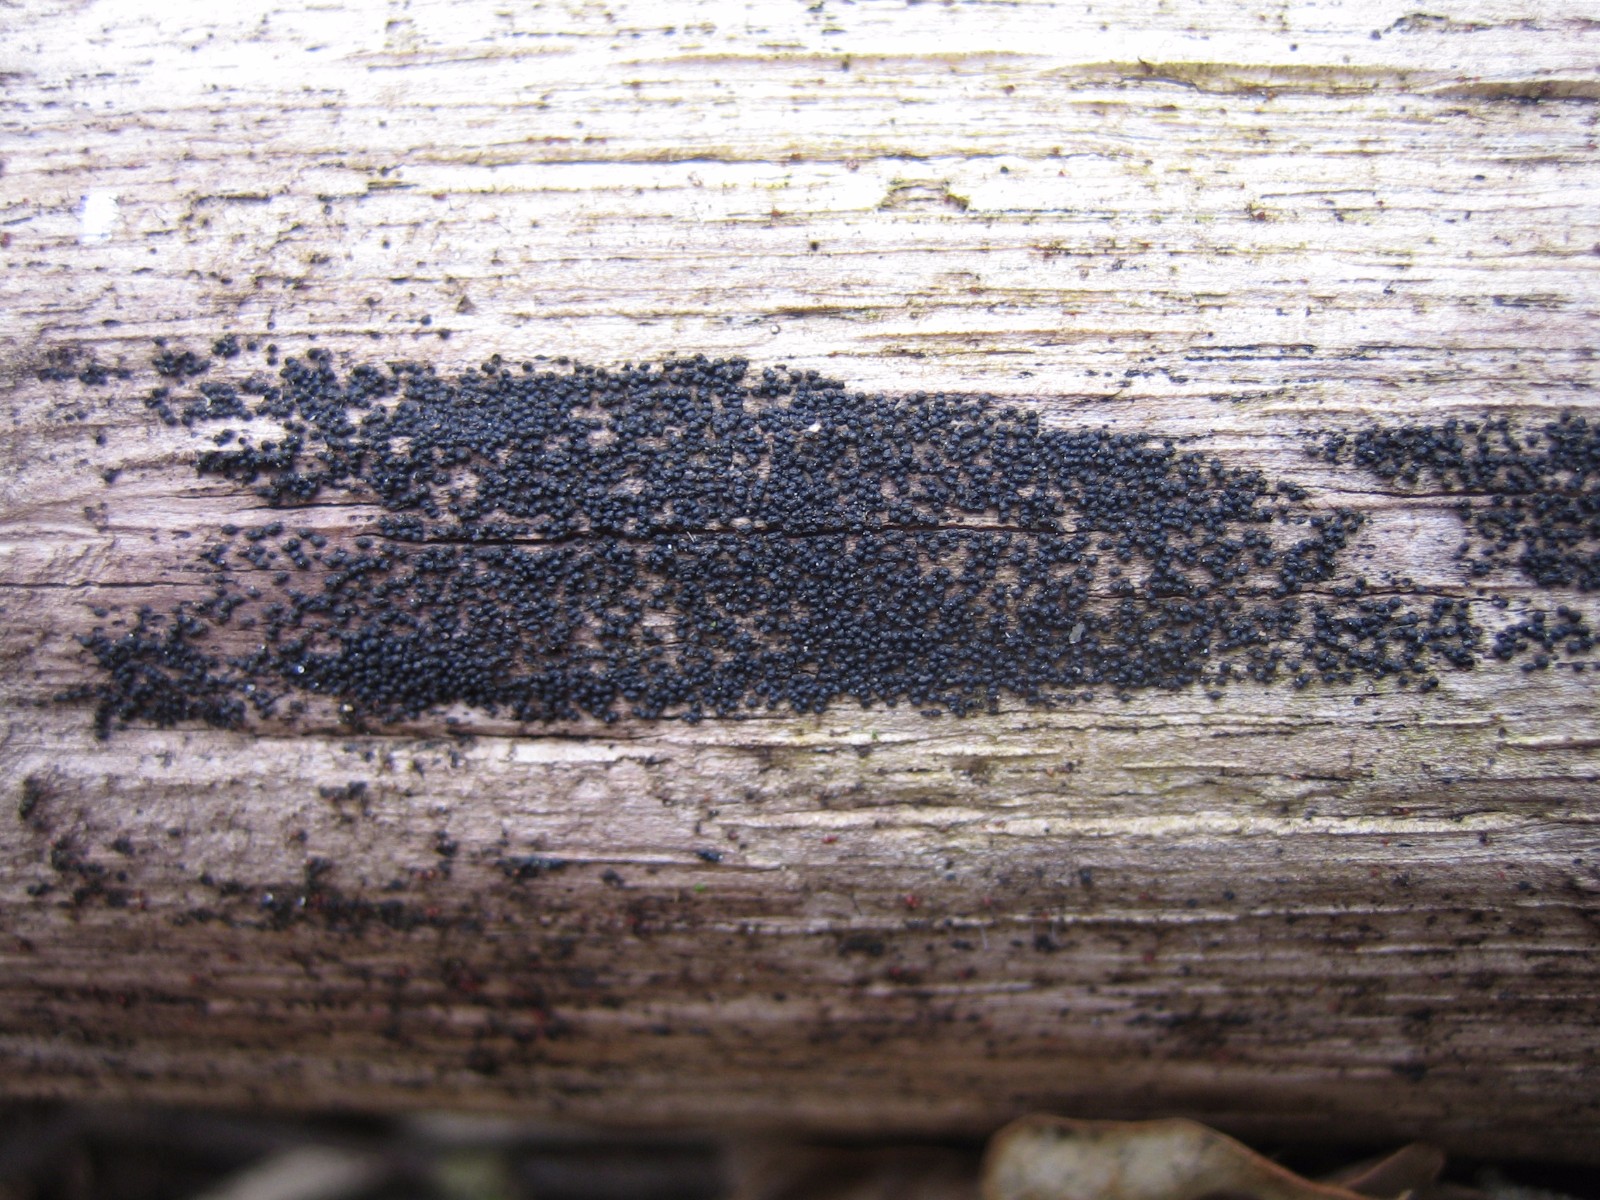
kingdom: Fungi
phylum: Ascomycota
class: Dothideomycetes
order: Pleosporales
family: Melanommataceae
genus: Melanomma
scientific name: Melanomma pulvis-pyrius
